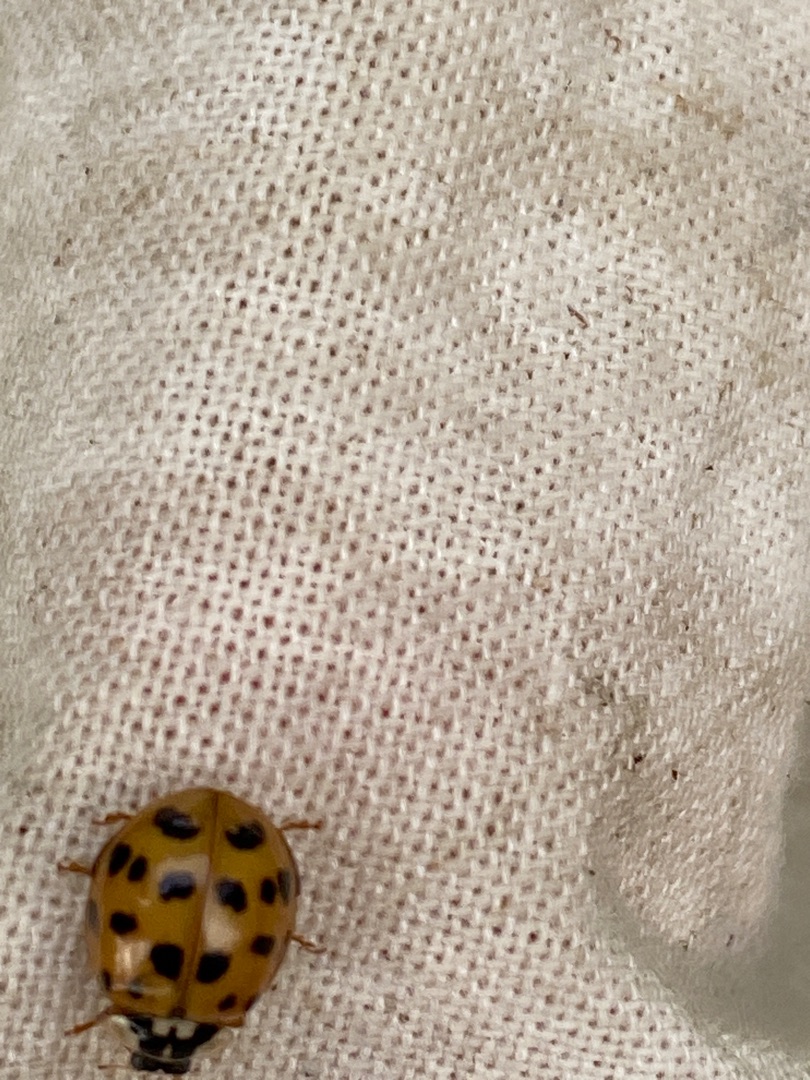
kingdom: Animalia
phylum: Arthropoda
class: Insecta
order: Coleoptera
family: Coccinellidae
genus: Harmonia
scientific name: Harmonia axyridis
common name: Harlekinmariehøne
